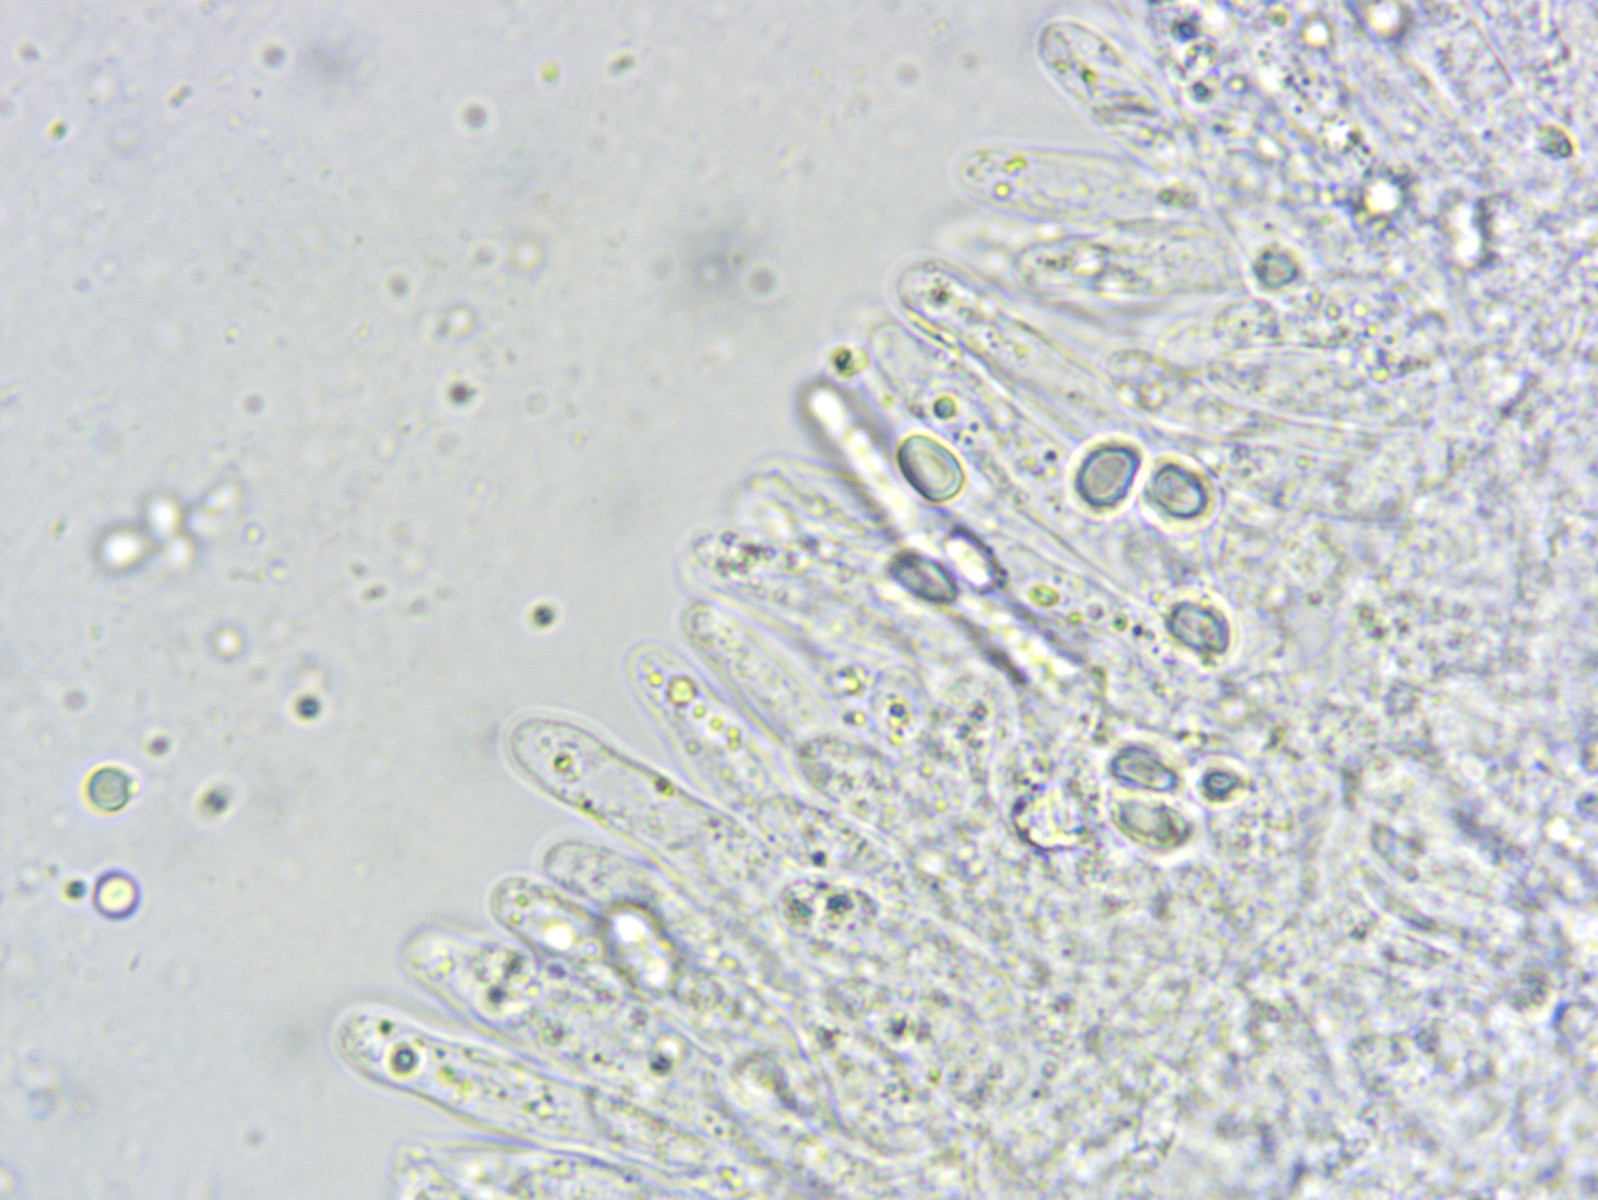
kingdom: Fungi
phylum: Basidiomycota
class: Agaricomycetes
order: Agaricales
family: Mycenaceae
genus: Mycena
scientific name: Mycena amicta
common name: iris-huesvamp
